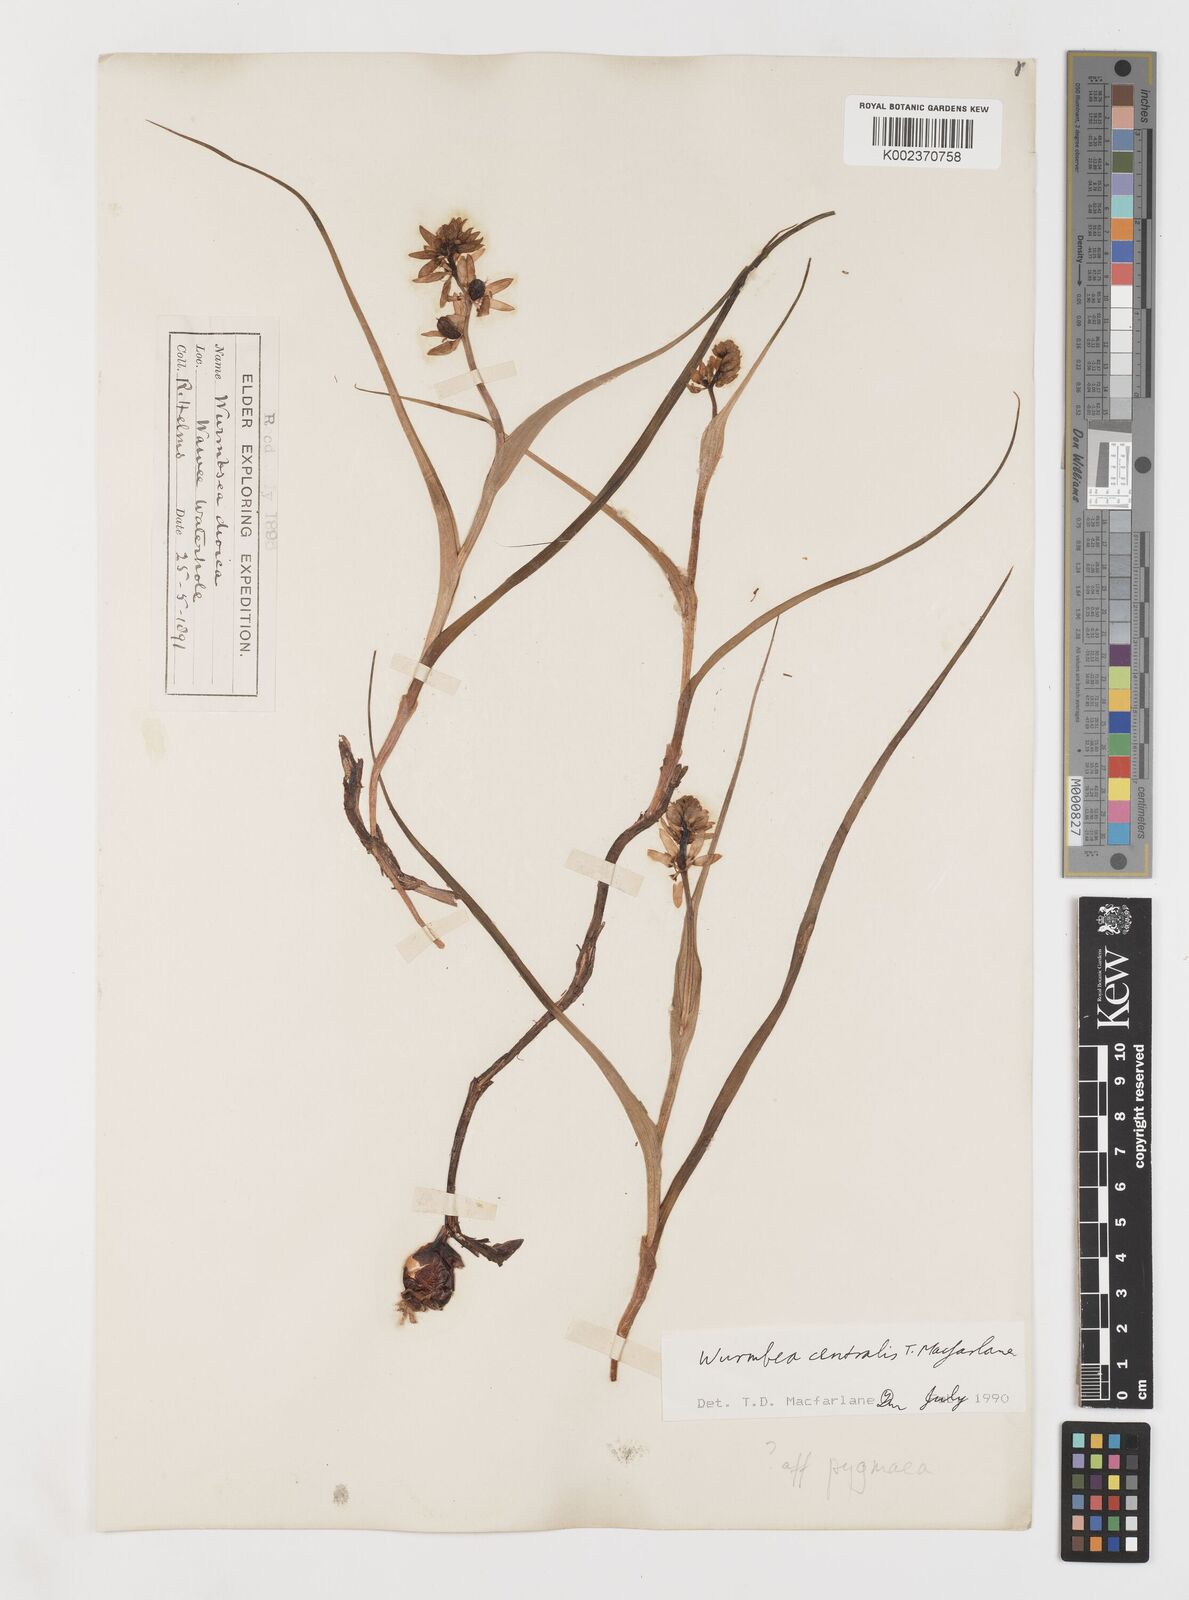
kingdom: Plantae
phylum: Tracheophyta
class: Liliopsida
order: Liliales
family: Colchicaceae
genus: Wurmbea
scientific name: Wurmbea pygmaea
